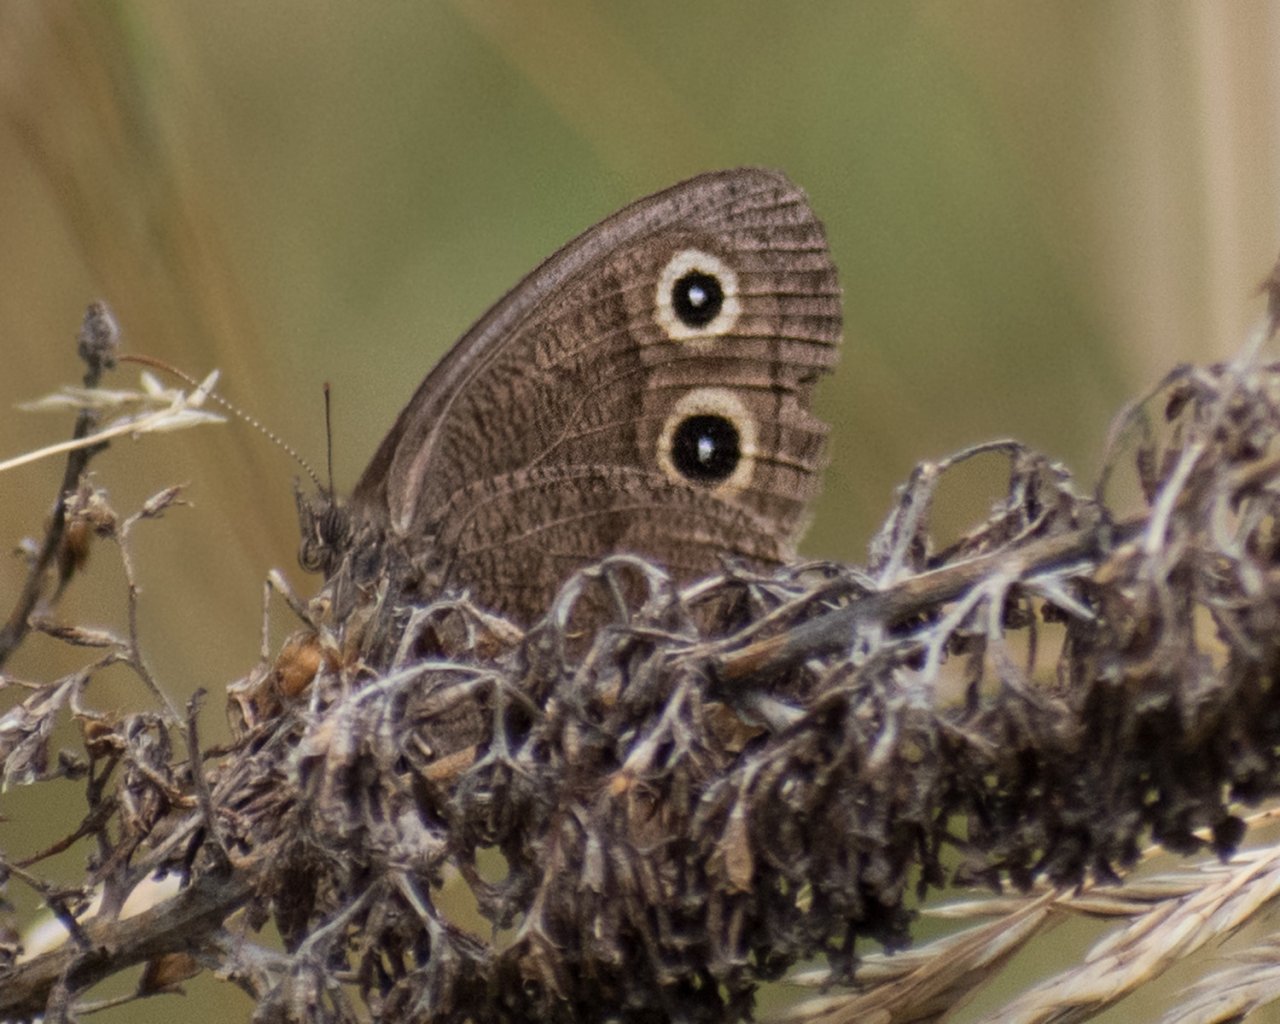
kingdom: Animalia
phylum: Arthropoda
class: Insecta
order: Lepidoptera
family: Nymphalidae
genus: Cercyonis
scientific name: Cercyonis pegala
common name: Common Wood-Nymph
